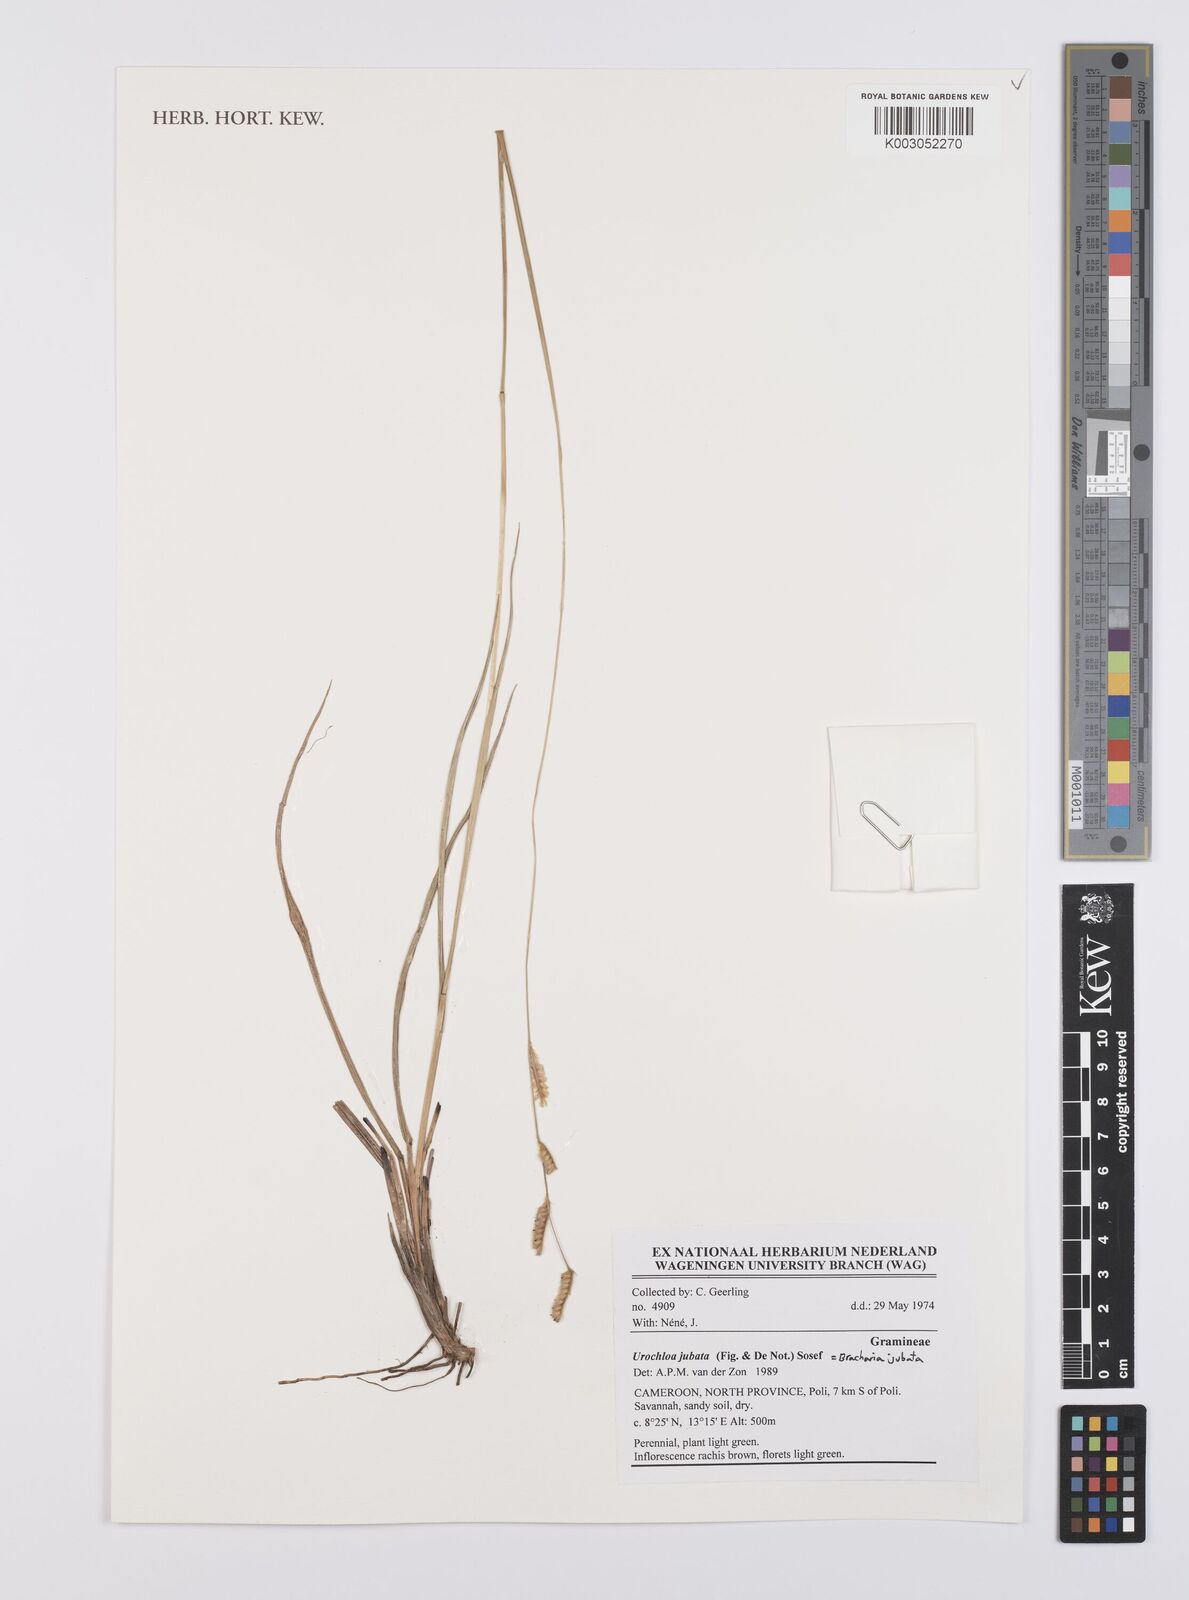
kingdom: Plantae
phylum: Tracheophyta
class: Liliopsida
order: Poales
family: Poaceae
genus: Urochloa
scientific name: Urochloa jubata
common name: Buffalograss
